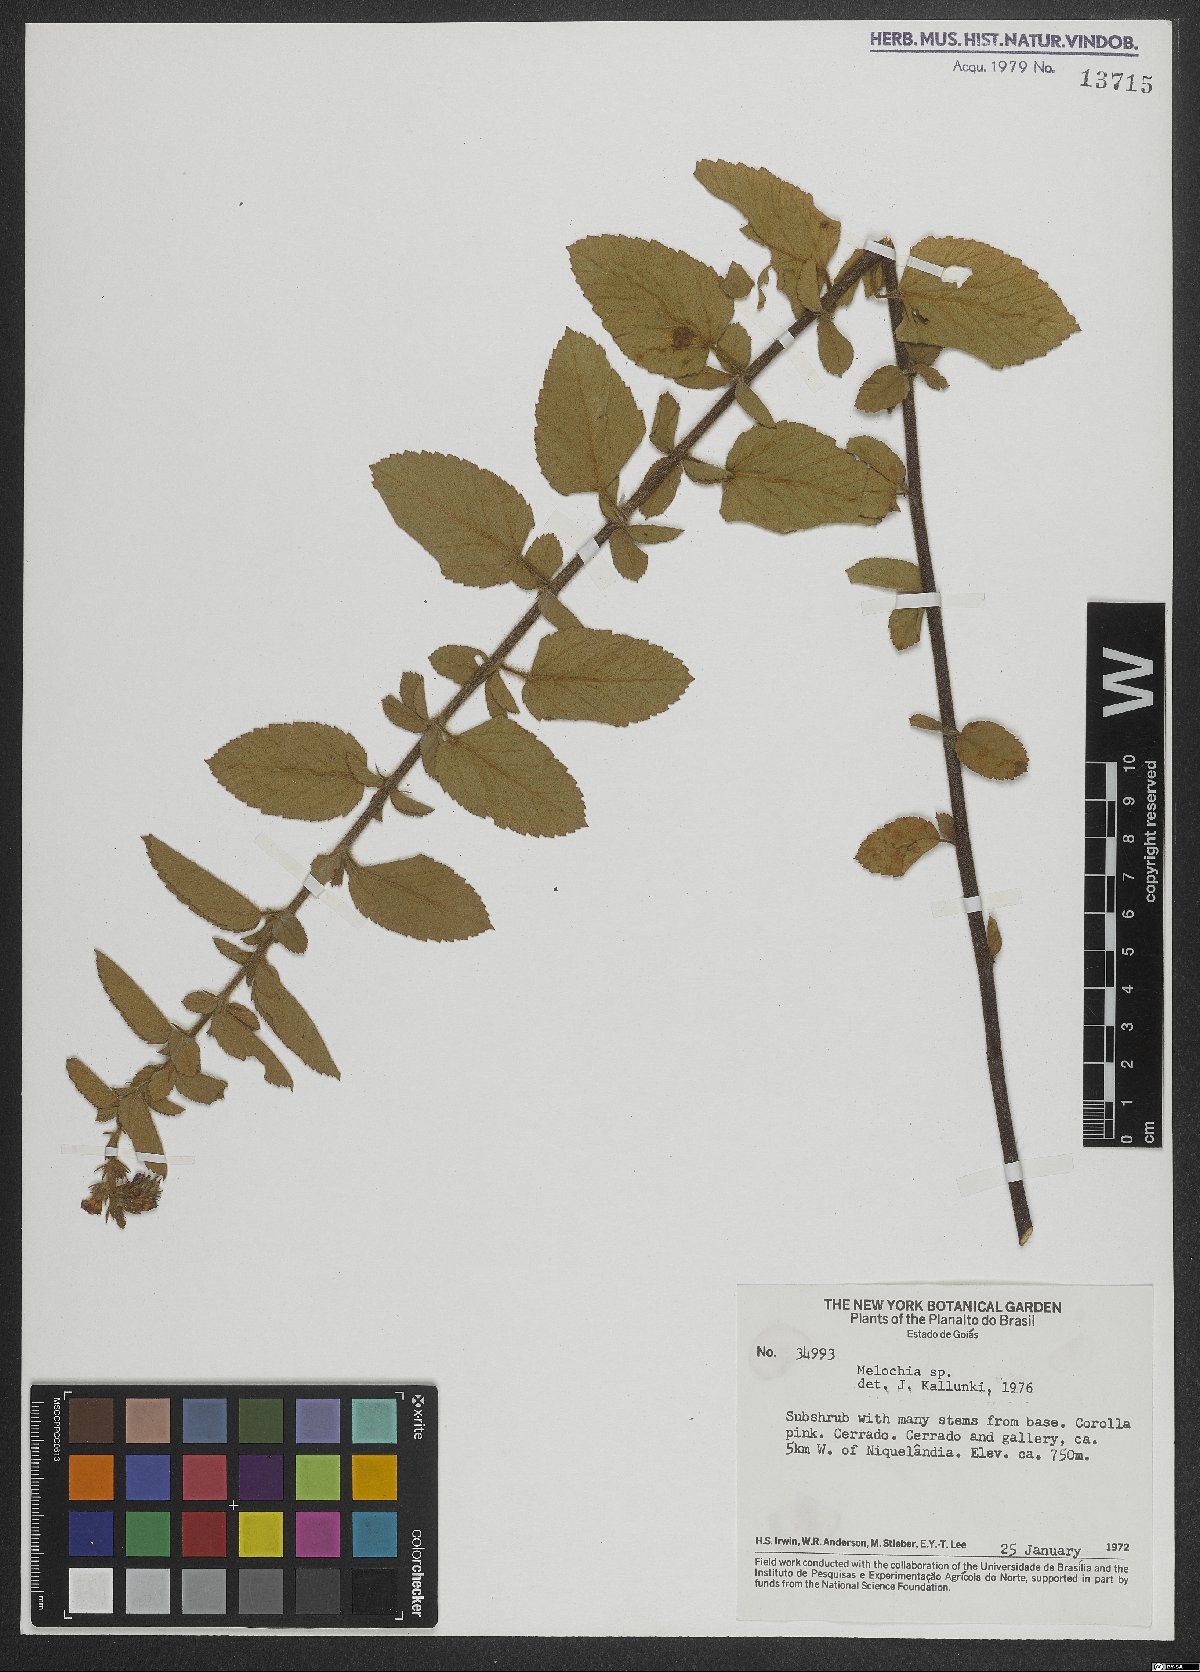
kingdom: Plantae
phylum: Tracheophyta
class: Magnoliopsida
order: Malvales
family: Malvaceae
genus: Melochia
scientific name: Melochia
